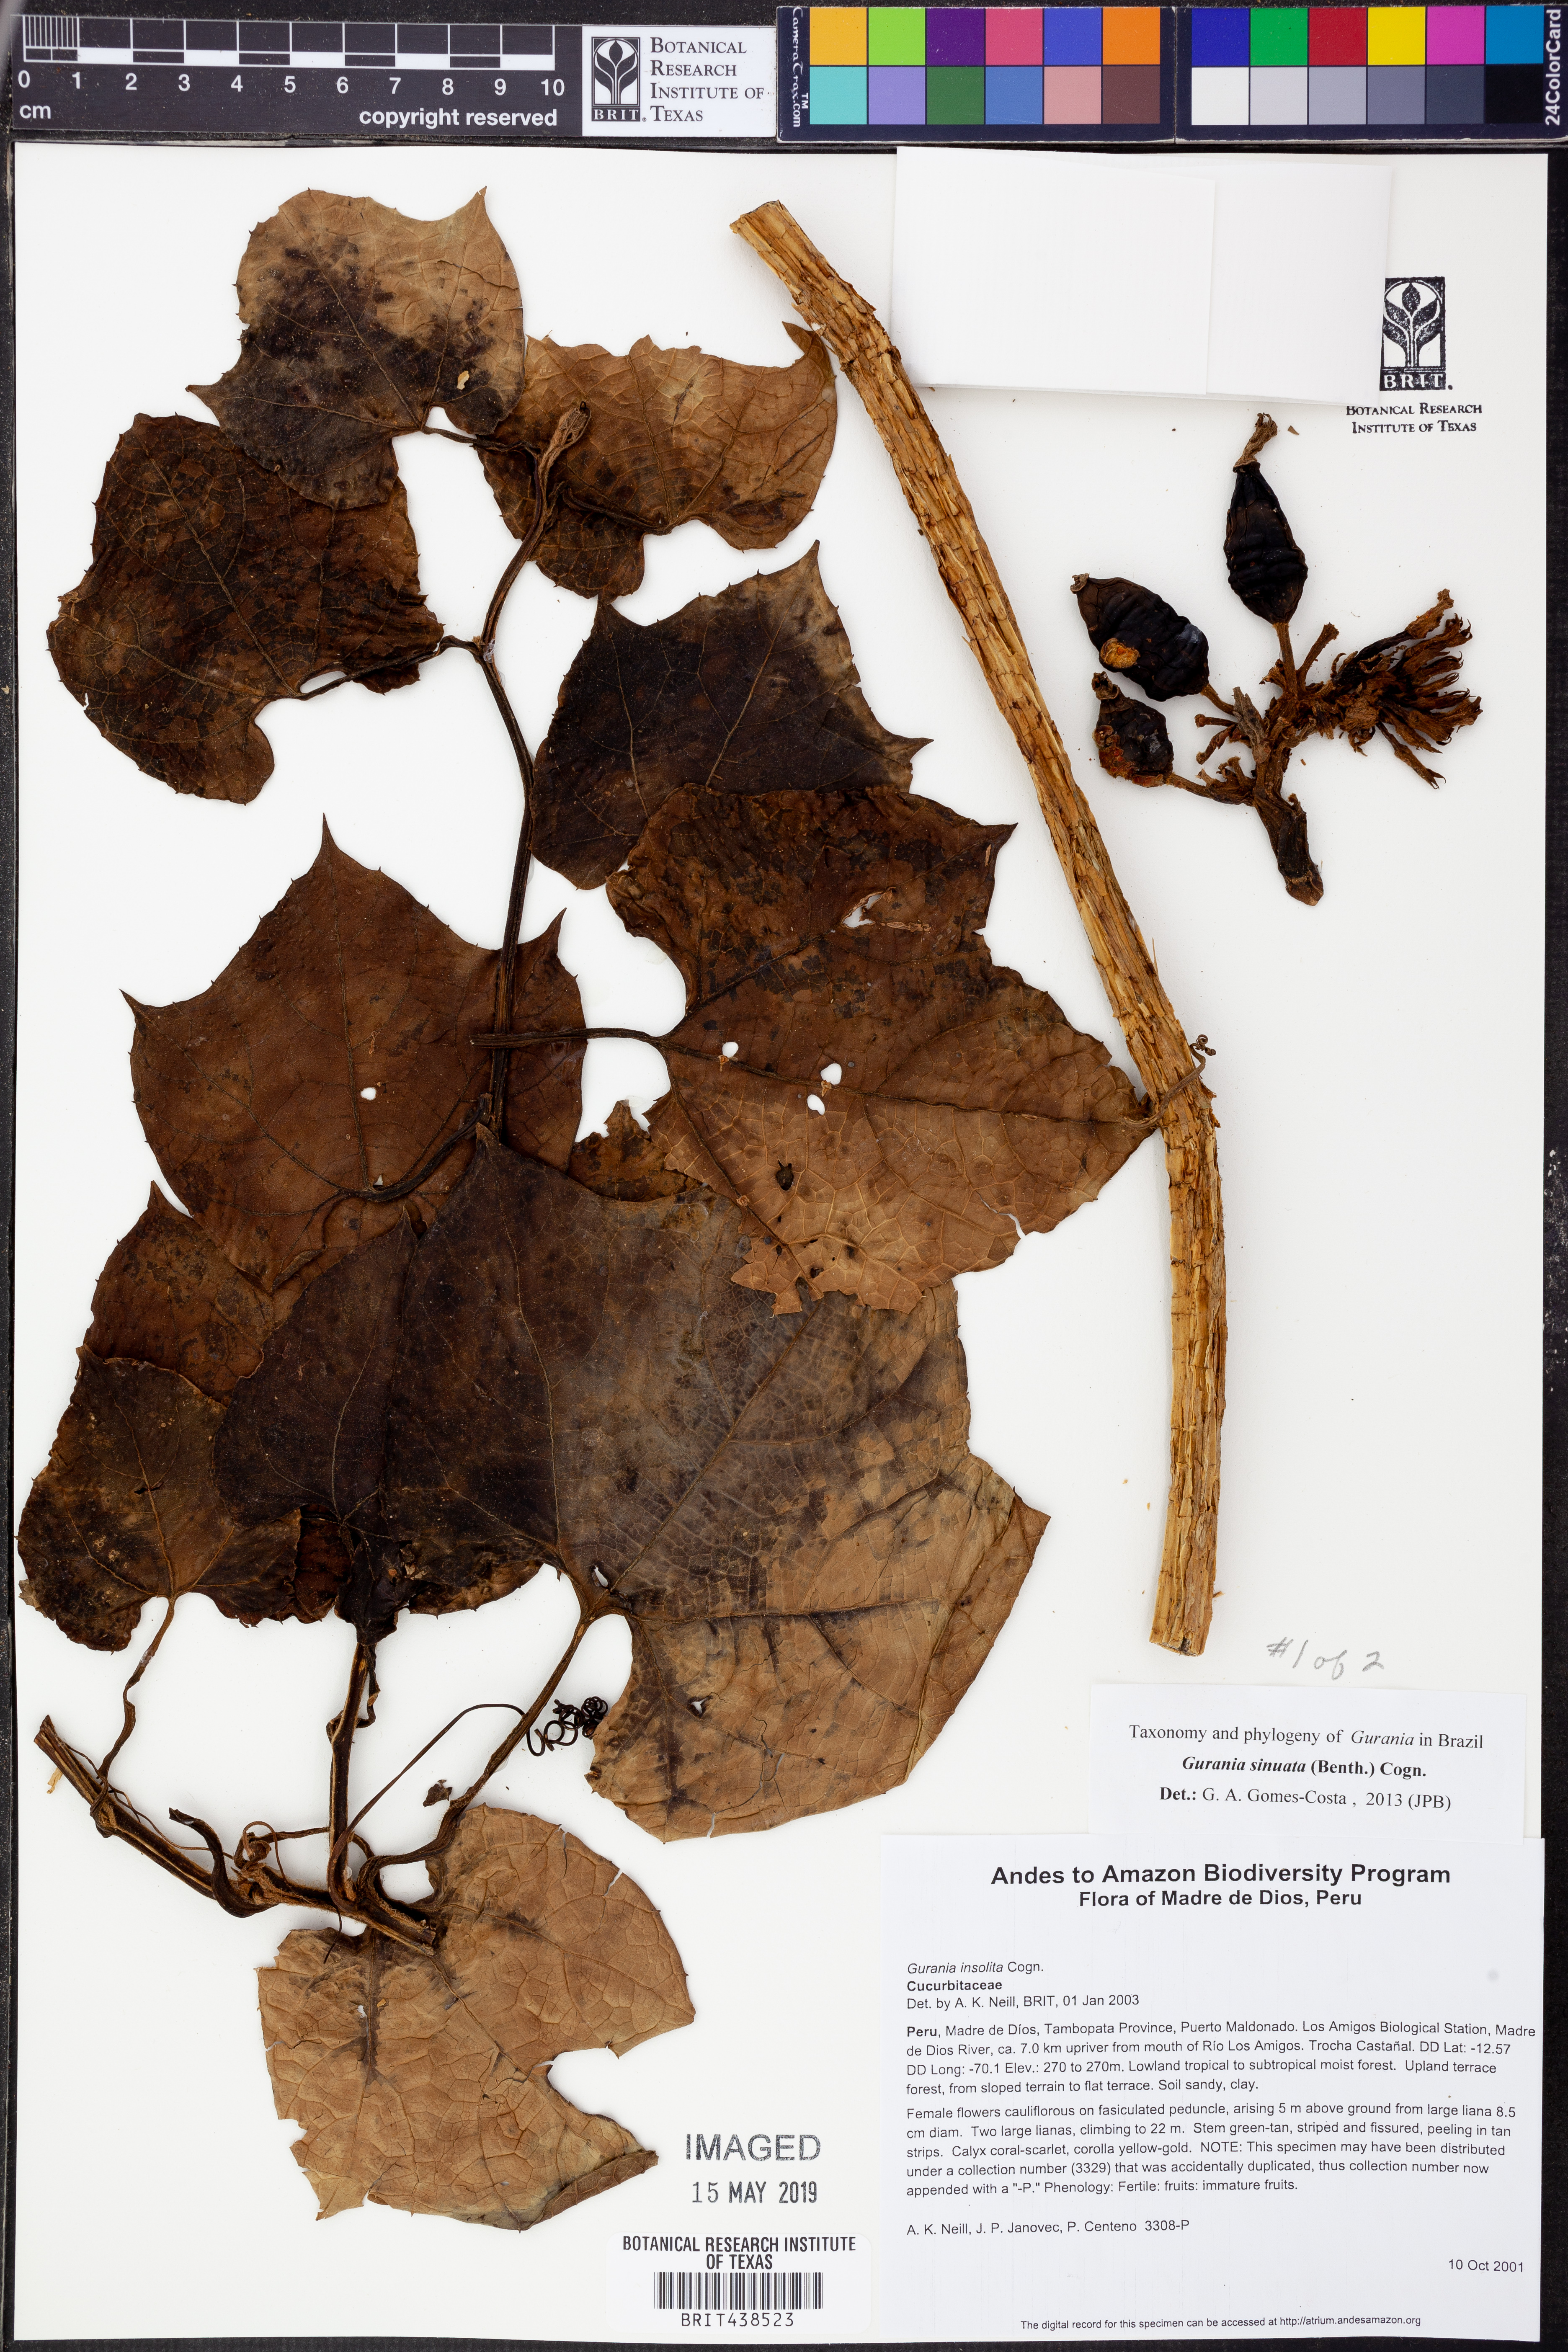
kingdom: Plantae
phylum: Tracheophyta
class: Magnoliopsida
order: Cucurbitales
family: Cucurbitaceae
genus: Gurania
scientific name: Gurania
